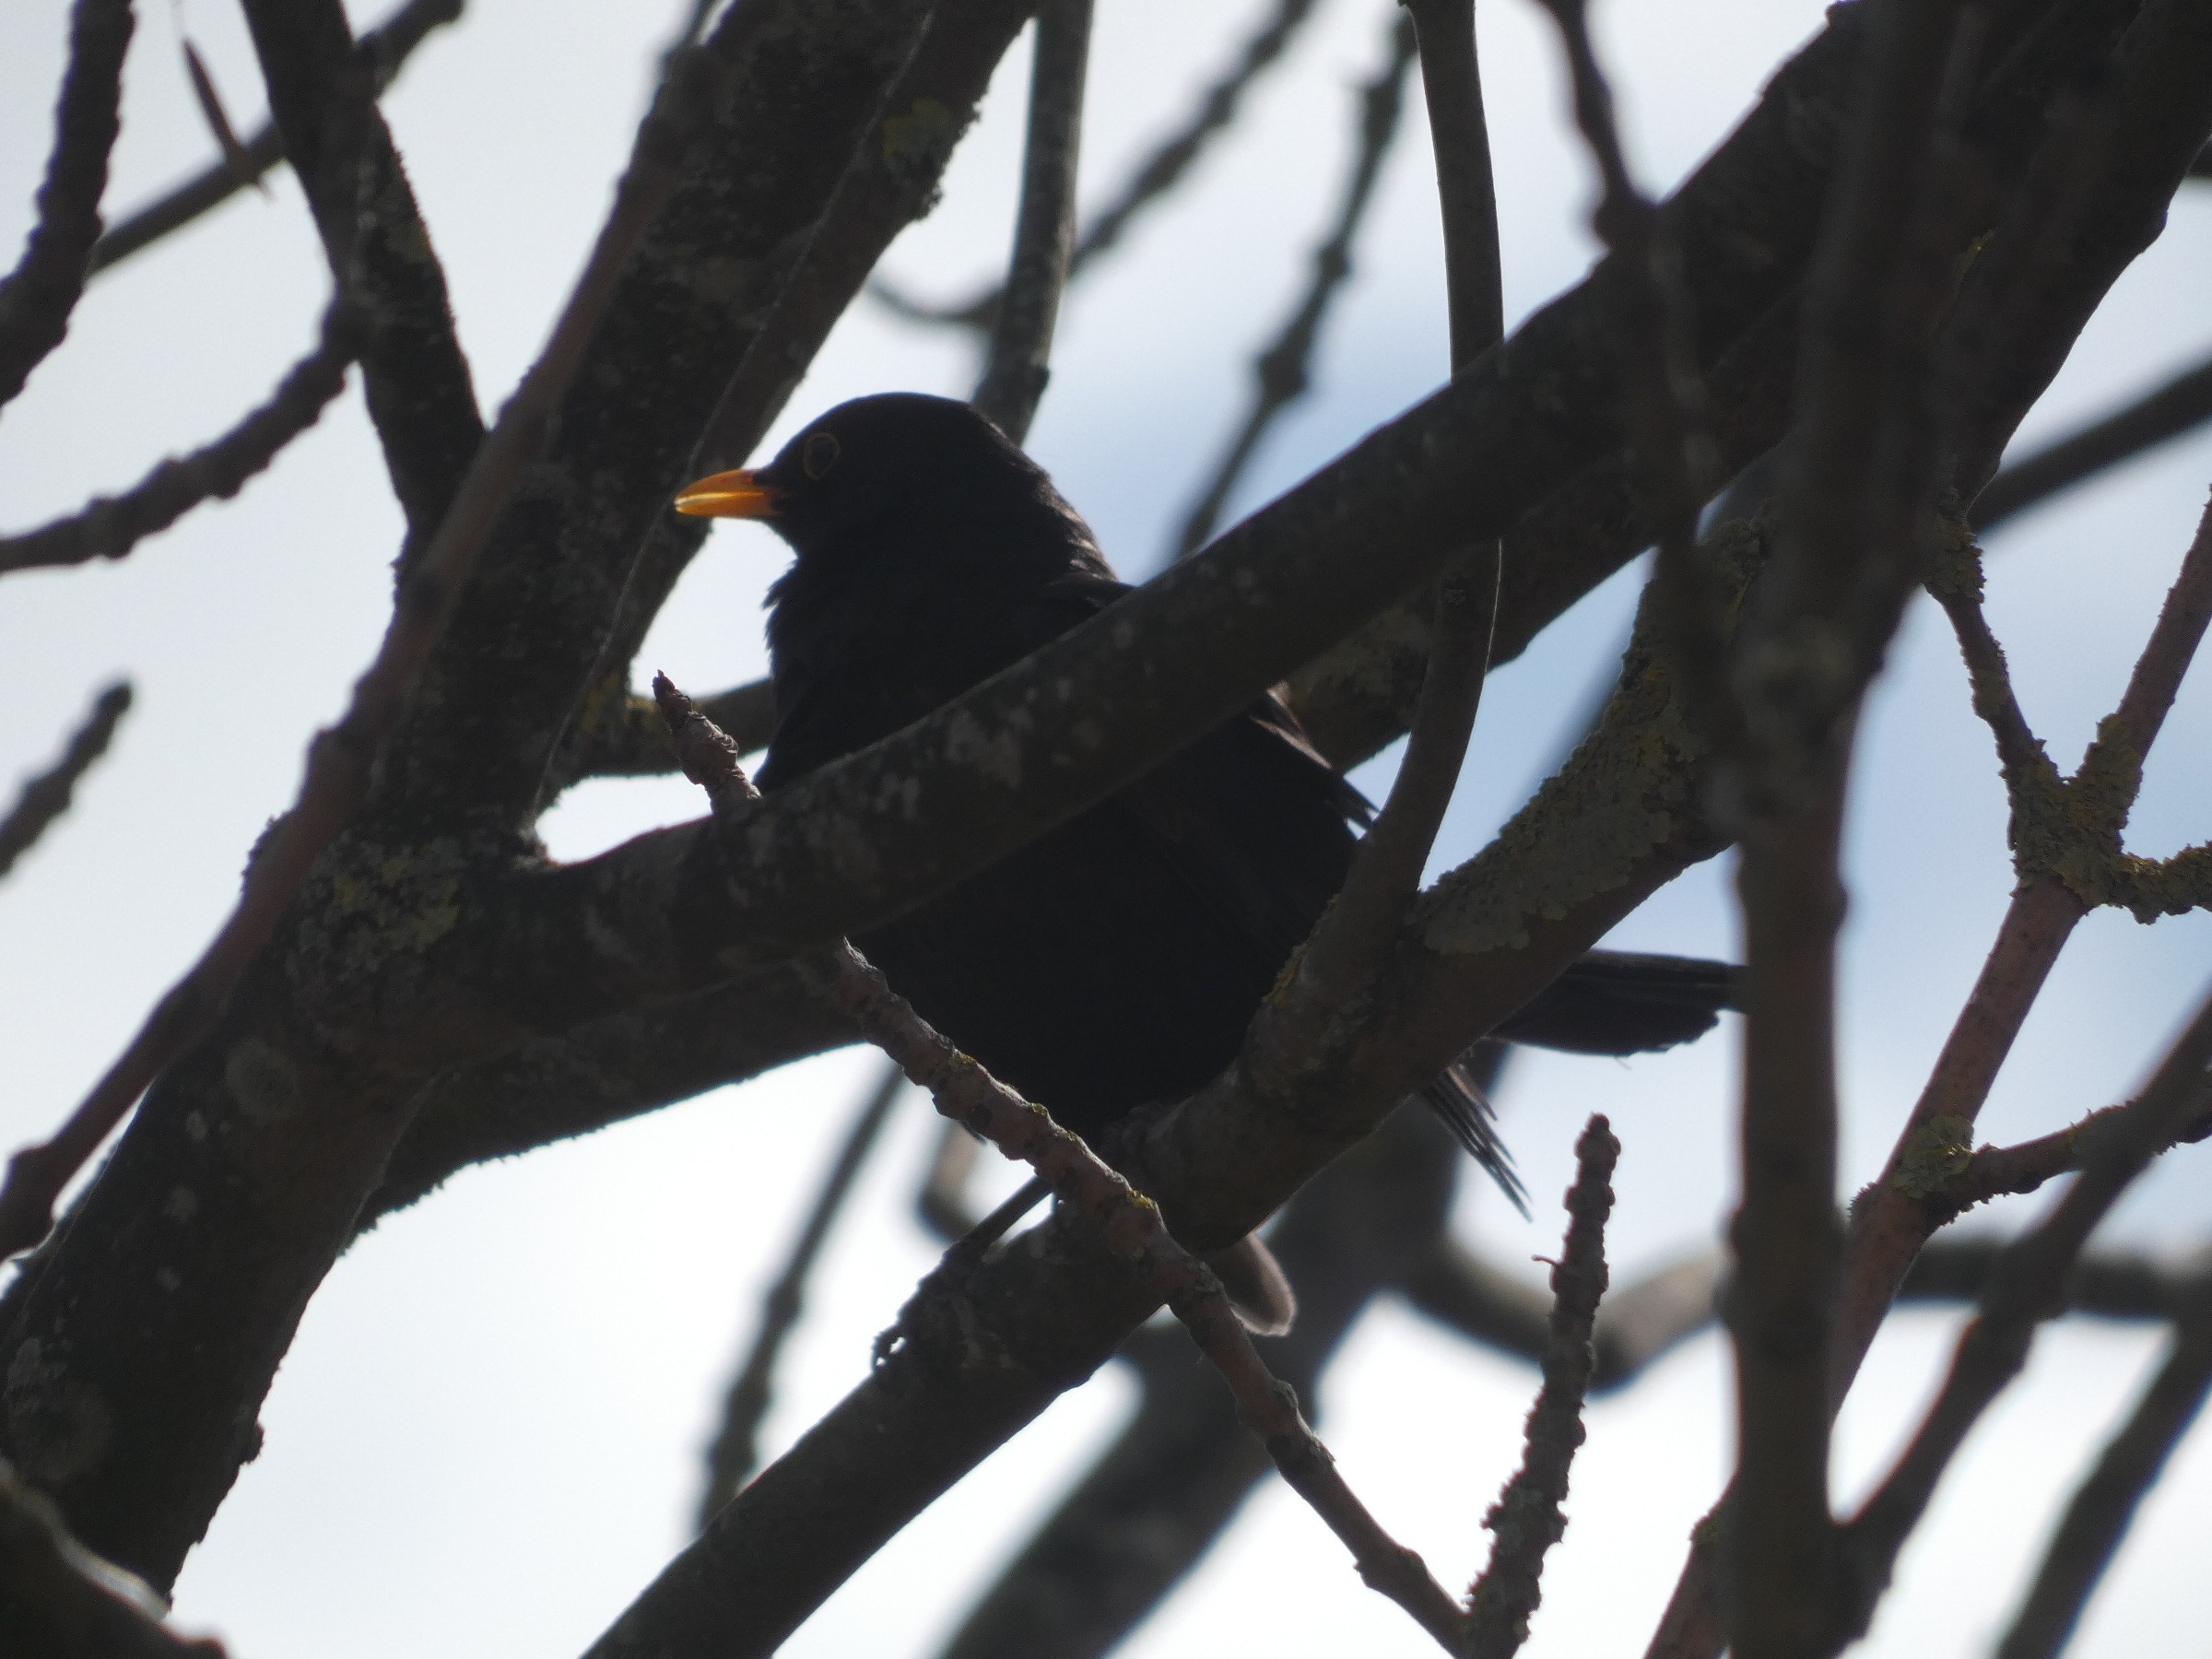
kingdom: Animalia
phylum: Chordata
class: Aves
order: Passeriformes
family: Turdidae
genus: Turdus
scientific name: Turdus merula
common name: Solsort
